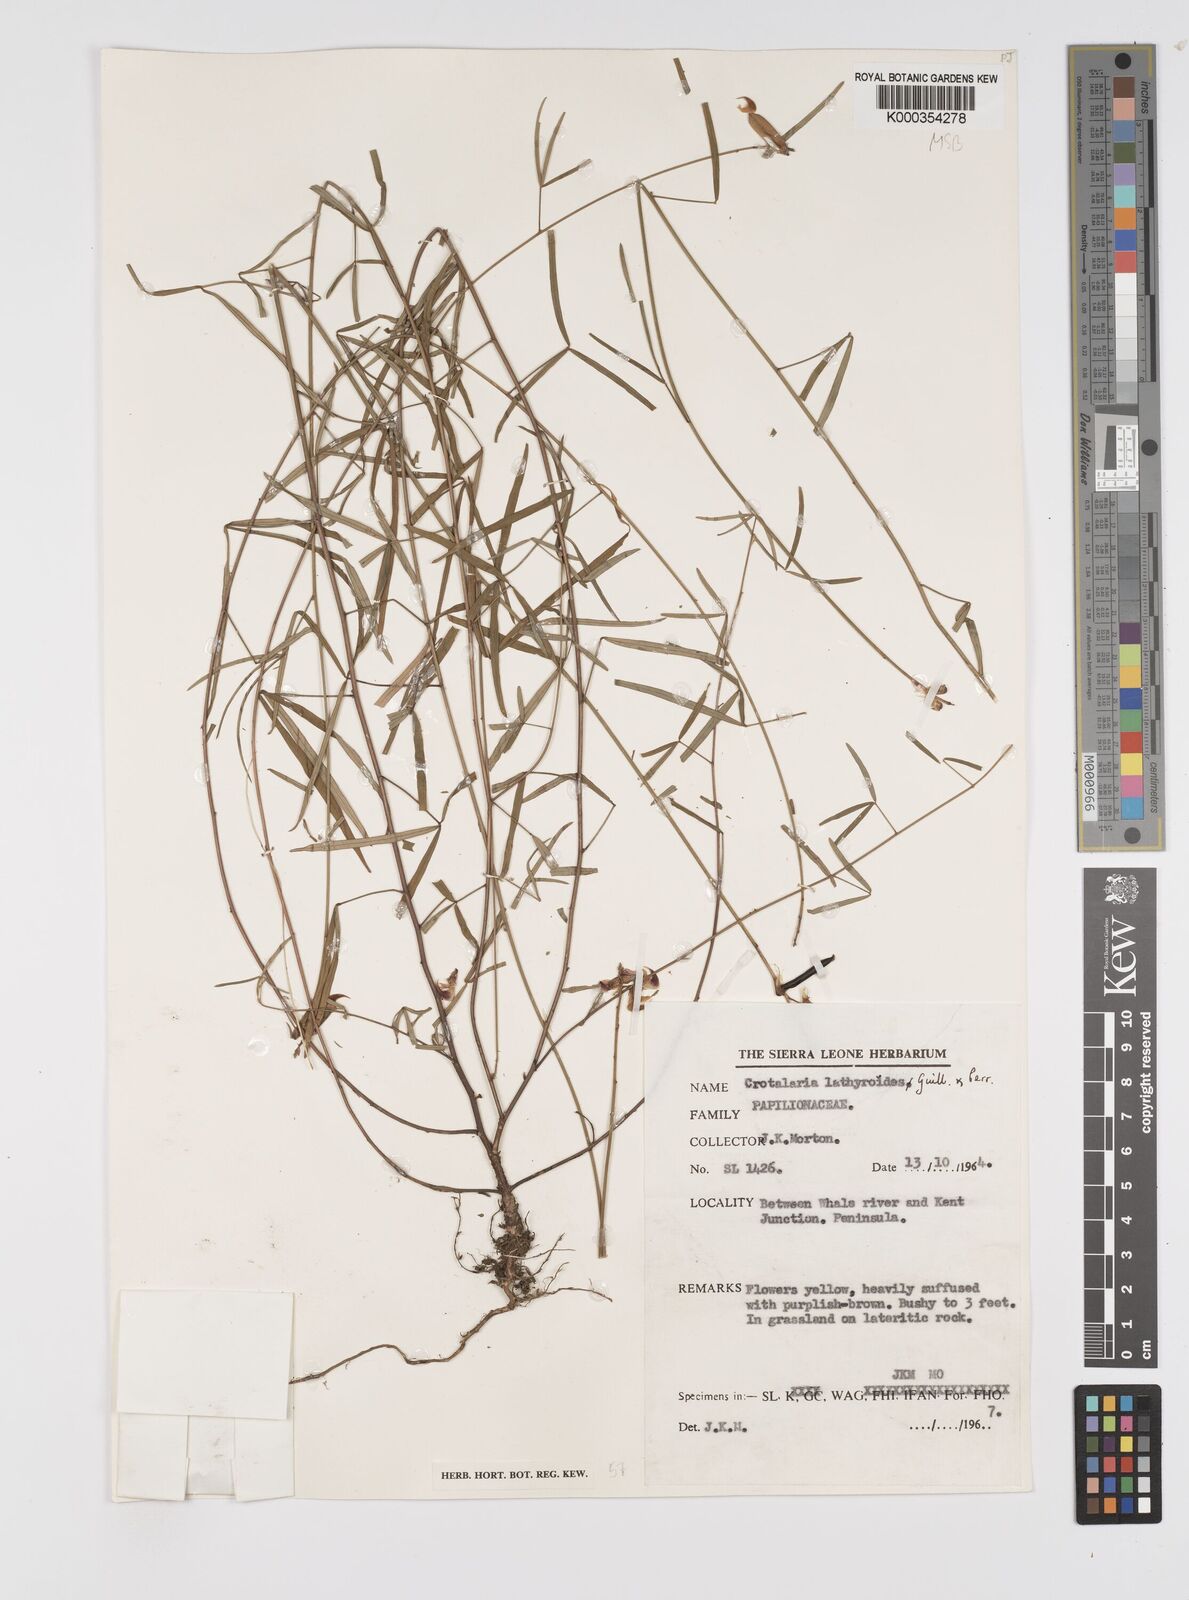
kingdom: Plantae
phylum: Tracheophyta
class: Magnoliopsida
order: Fabales
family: Fabaceae
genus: Crotalaria
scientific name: Crotalaria lathyroides
